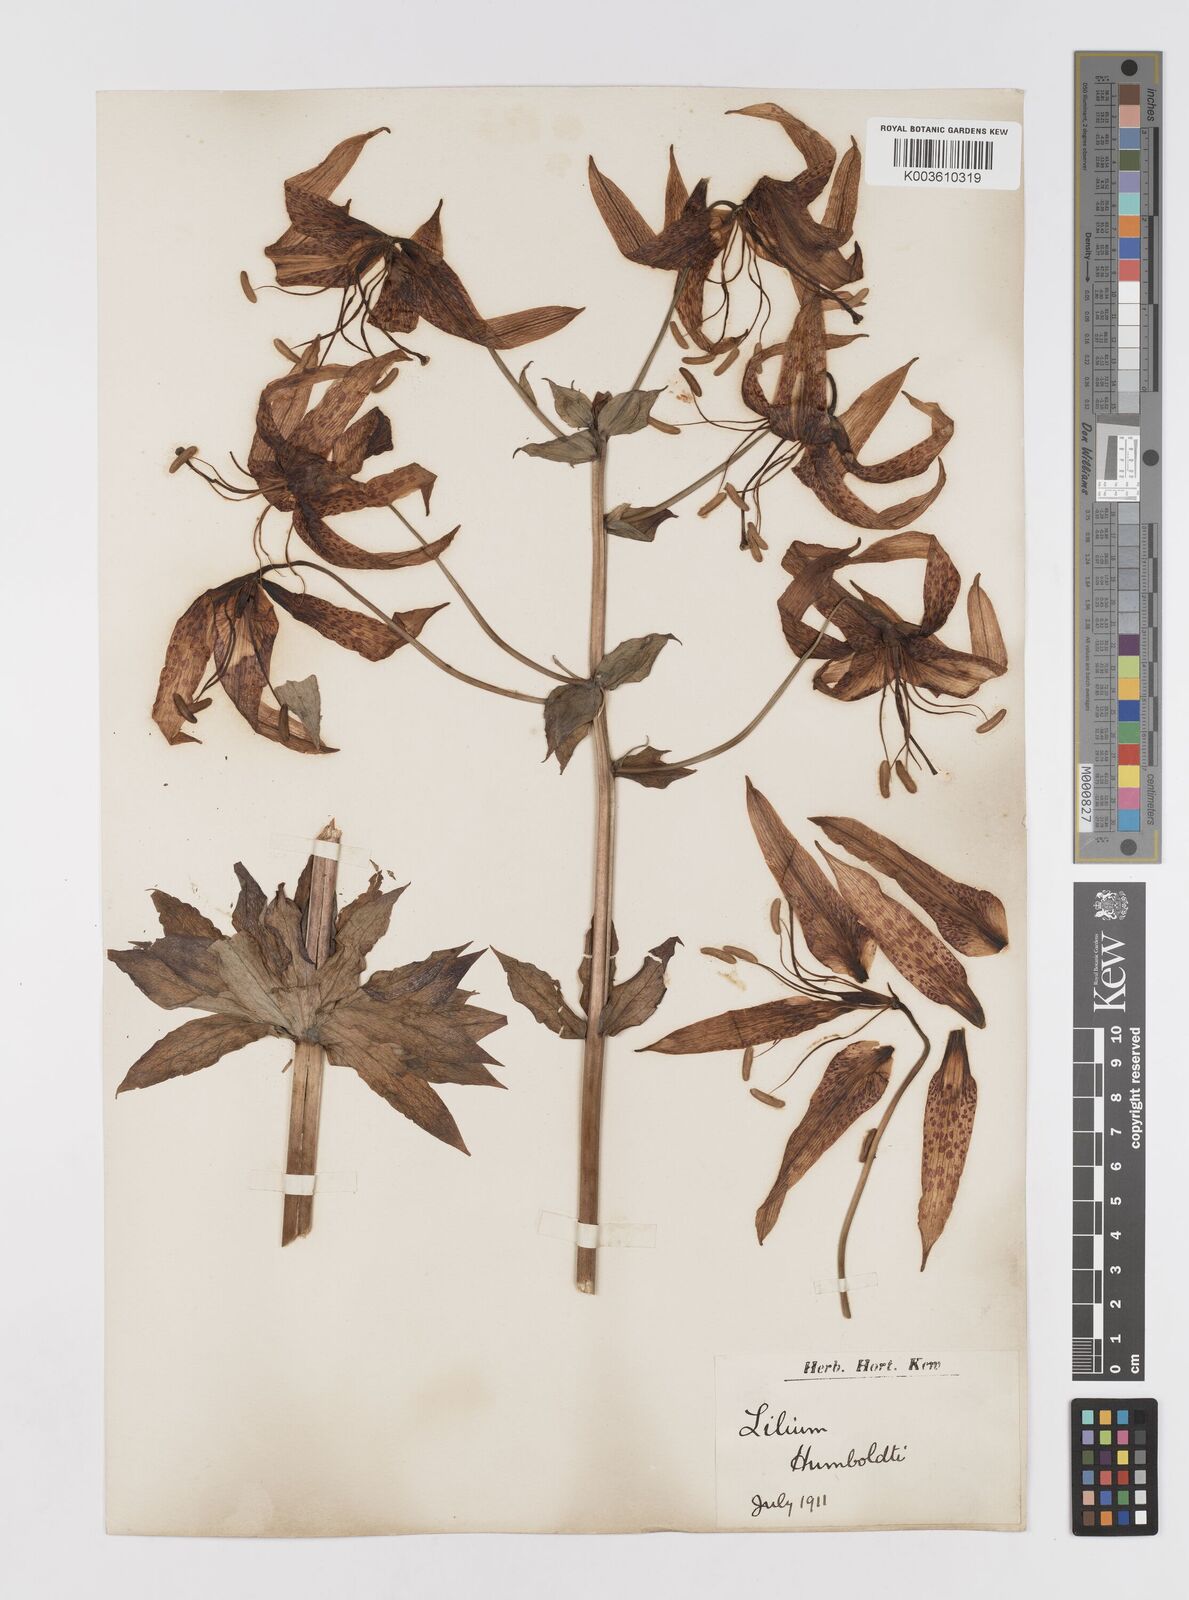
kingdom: Plantae
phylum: Tracheophyta
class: Liliopsida
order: Liliales
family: Liliaceae
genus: Lilium
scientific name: Lilium humboldtii
